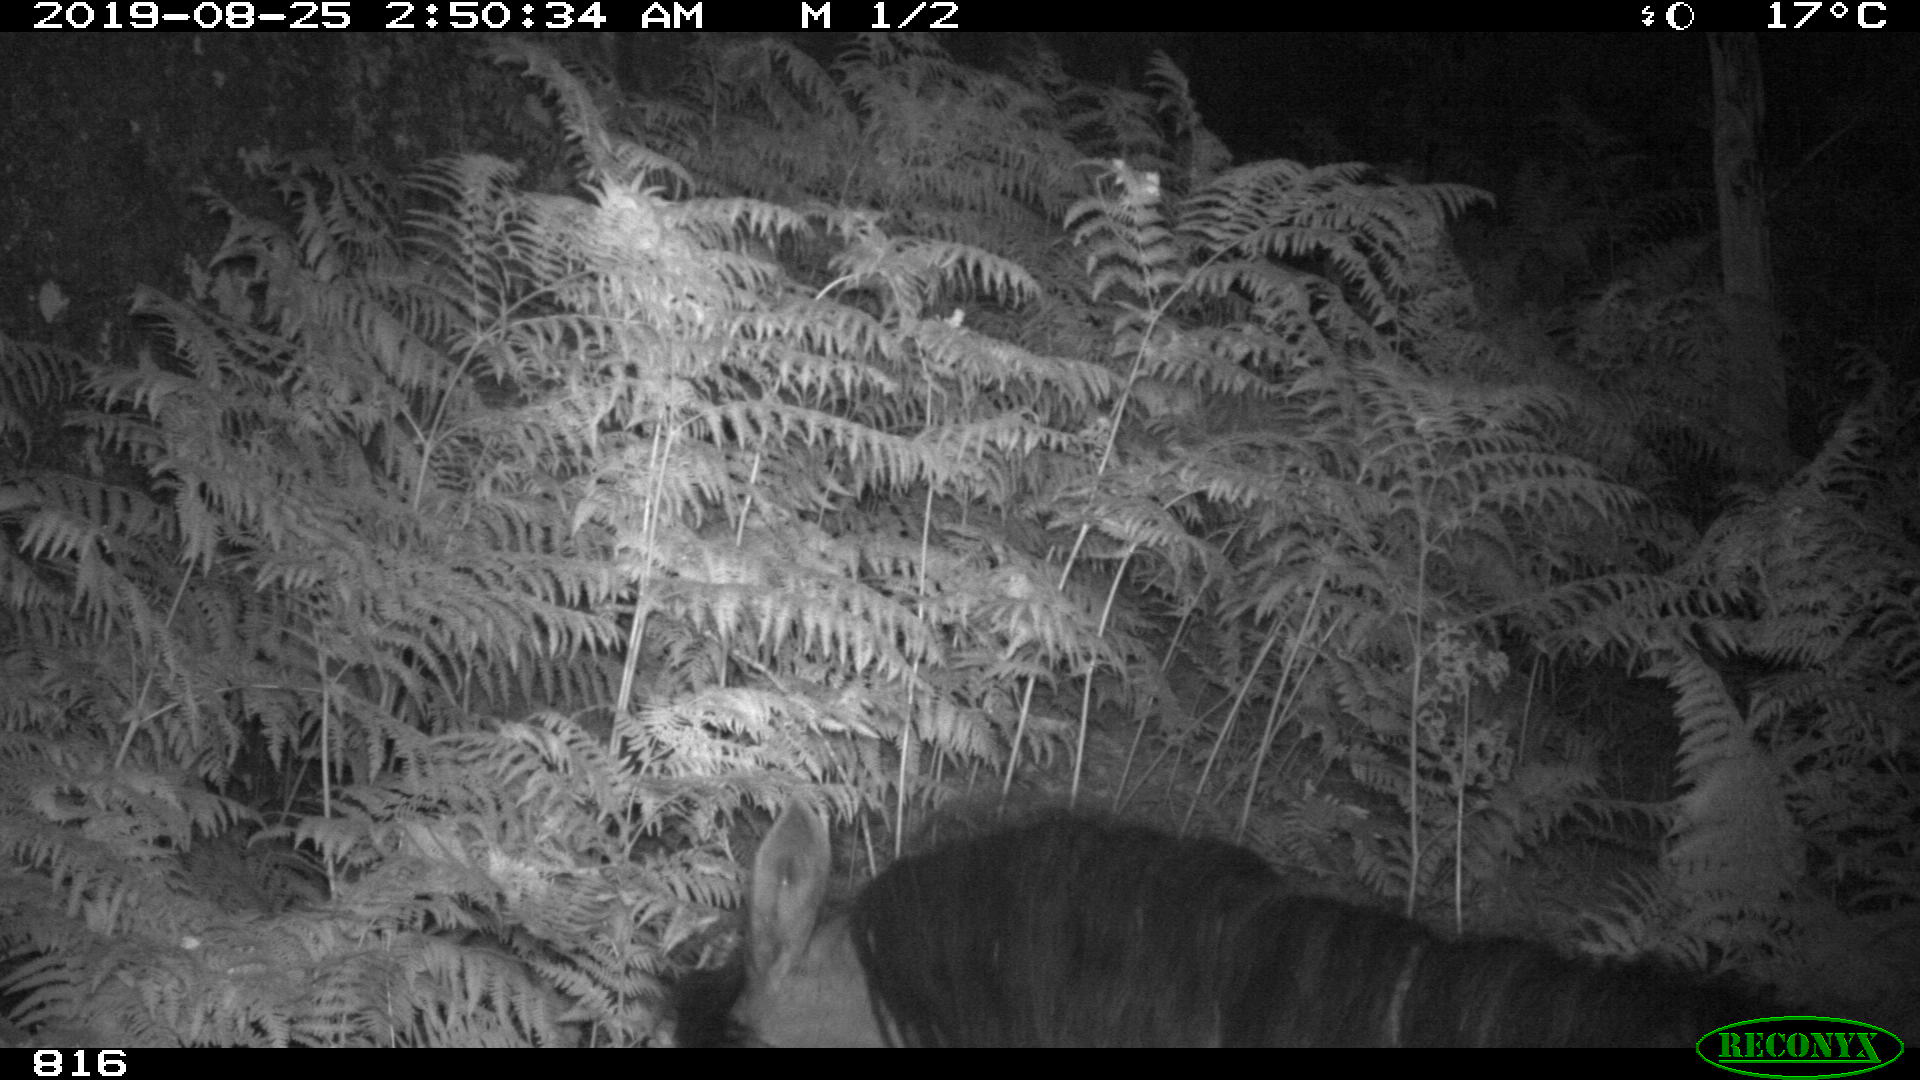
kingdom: Animalia
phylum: Chordata
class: Mammalia
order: Perissodactyla
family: Equidae
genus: Equus
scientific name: Equus caballus
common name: Horse
